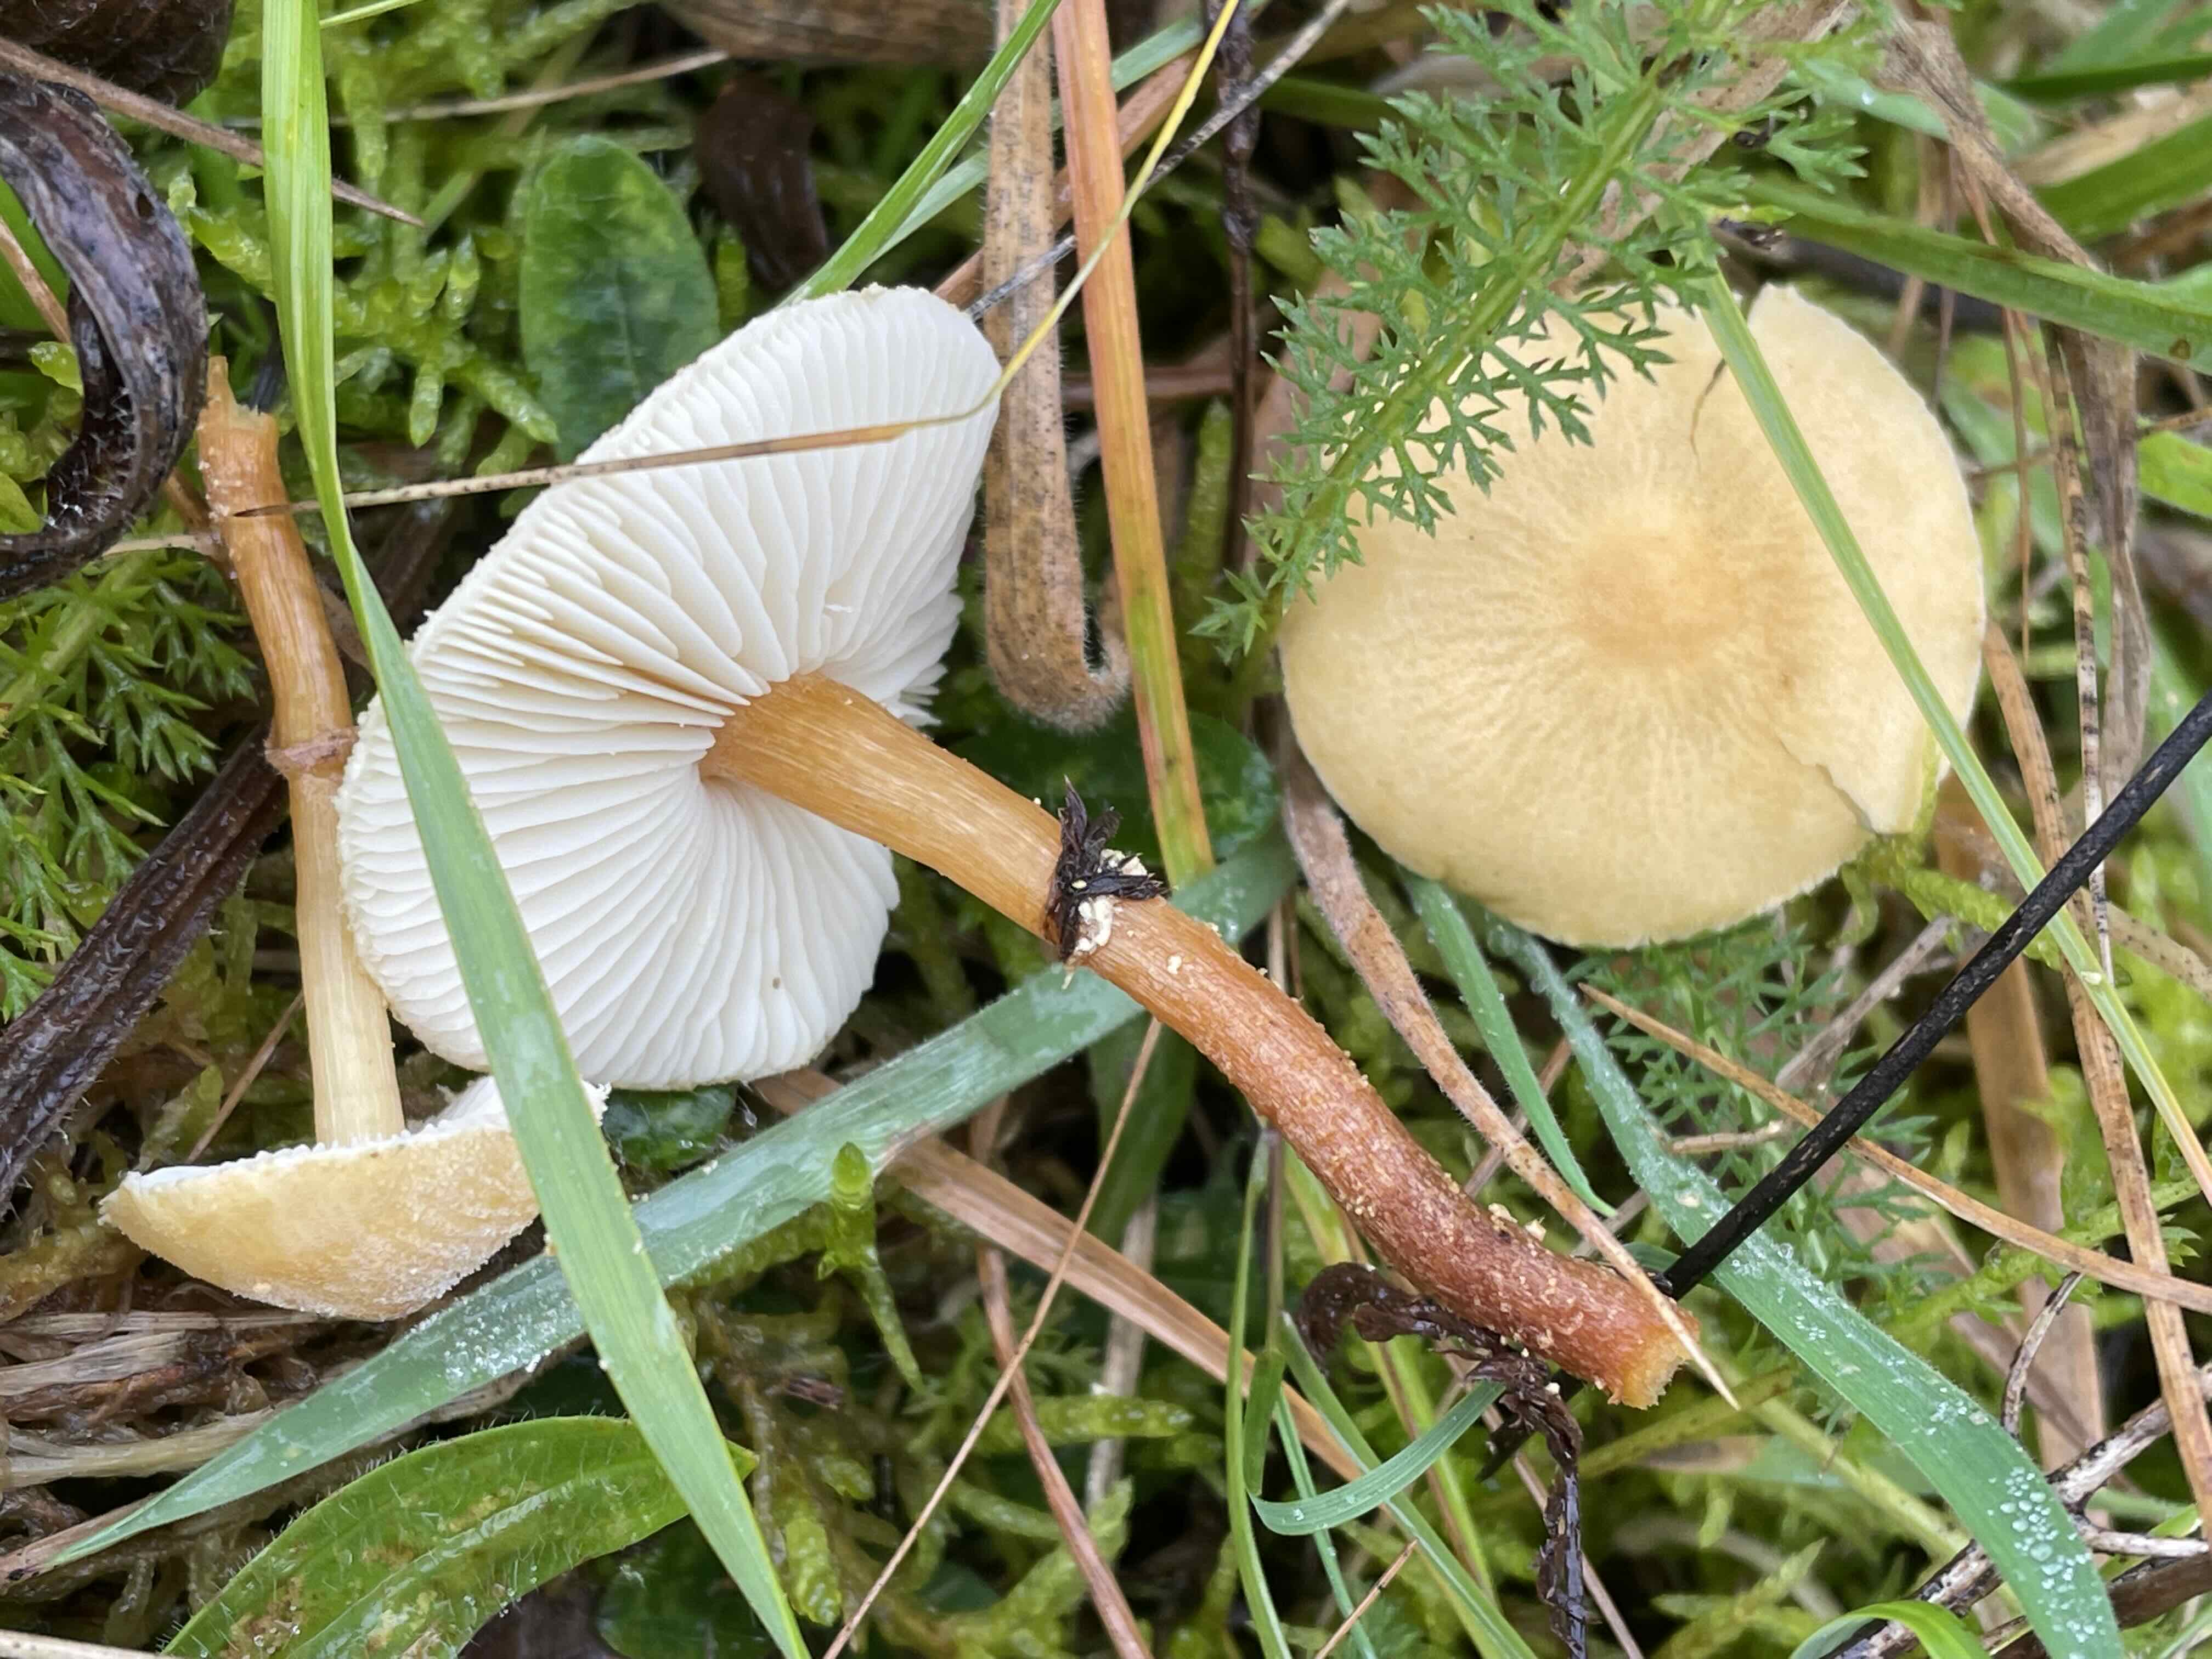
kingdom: Fungi
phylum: Basidiomycota
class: Agaricomycetes
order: Agaricales
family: Tricholomataceae
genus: Cystoderma
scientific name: Cystoderma amianthinum
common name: okkergul grynhat
